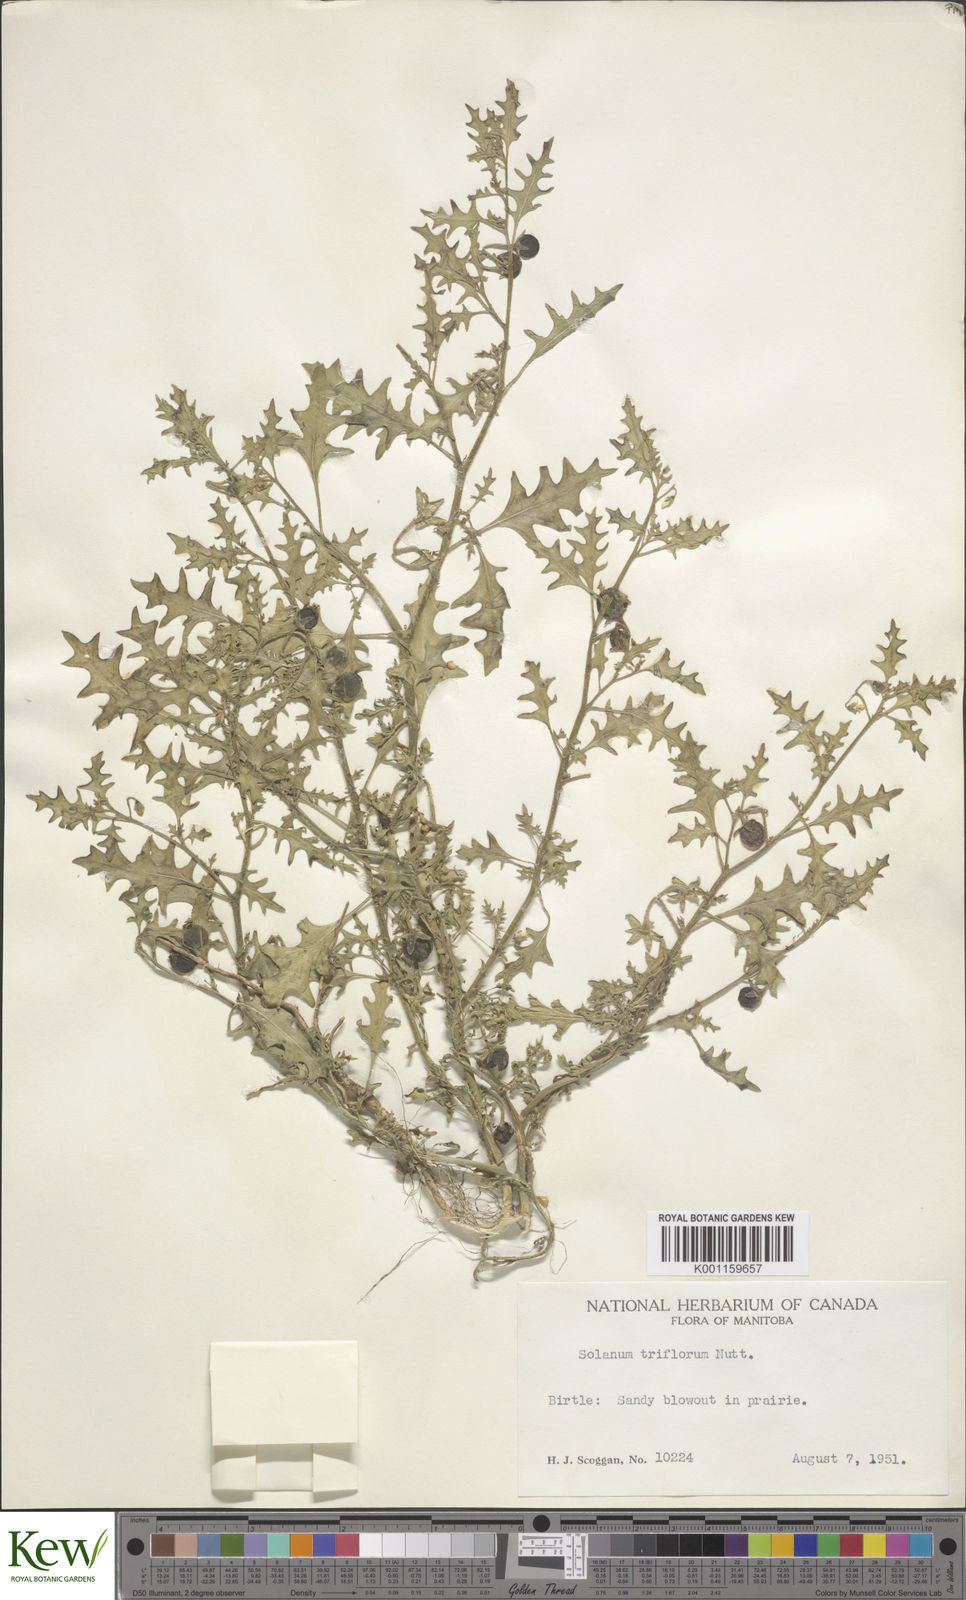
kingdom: Plantae
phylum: Tracheophyta
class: Magnoliopsida
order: Solanales
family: Solanaceae
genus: Solanum
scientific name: Solanum triflorum
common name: Small nightshade
